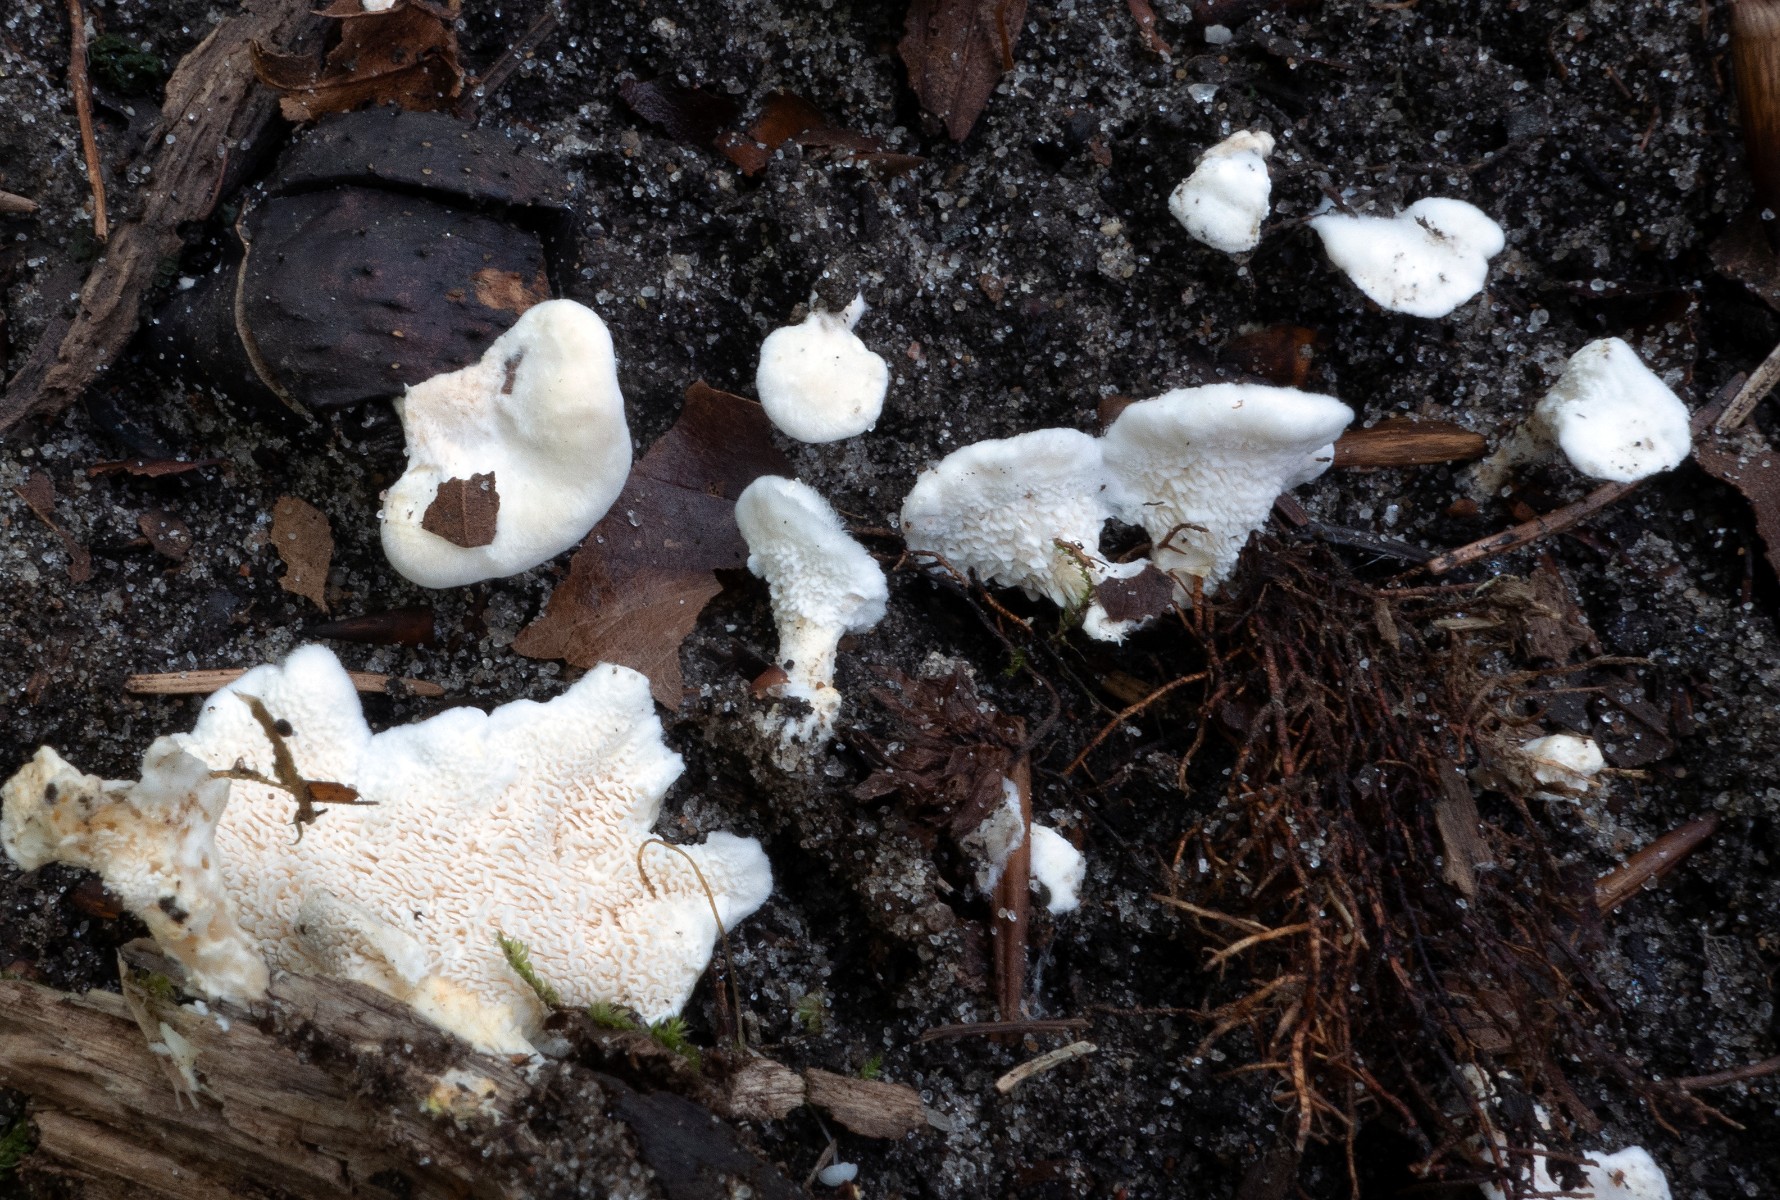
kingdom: Fungi
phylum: Basidiomycota
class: Agaricomycetes
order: Cantharellales
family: Hydnaceae
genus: Sistotrema
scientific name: Sistotrema confluens
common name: stilket kroneskorpe
